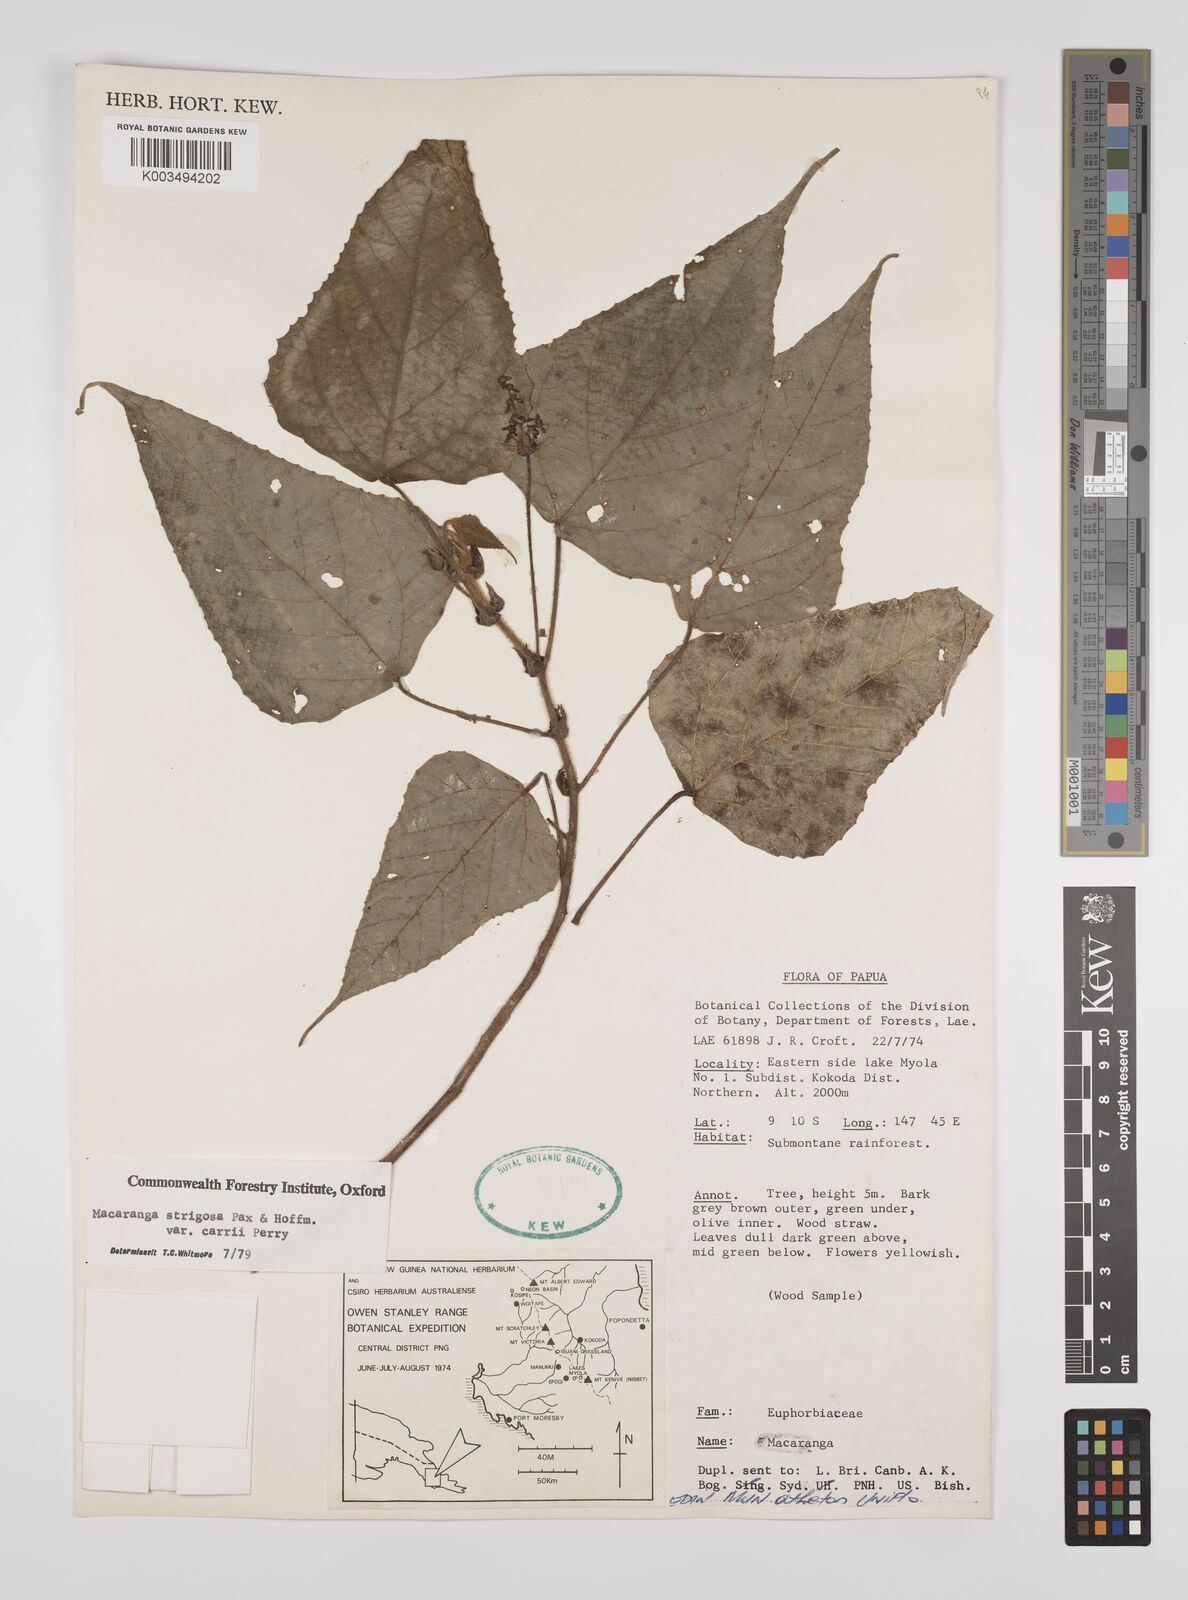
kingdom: Plantae
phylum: Tracheophyta
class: Magnoliopsida
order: Malpighiales
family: Euphorbiaceae
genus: Macaranga
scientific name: Macaranga strigosa
